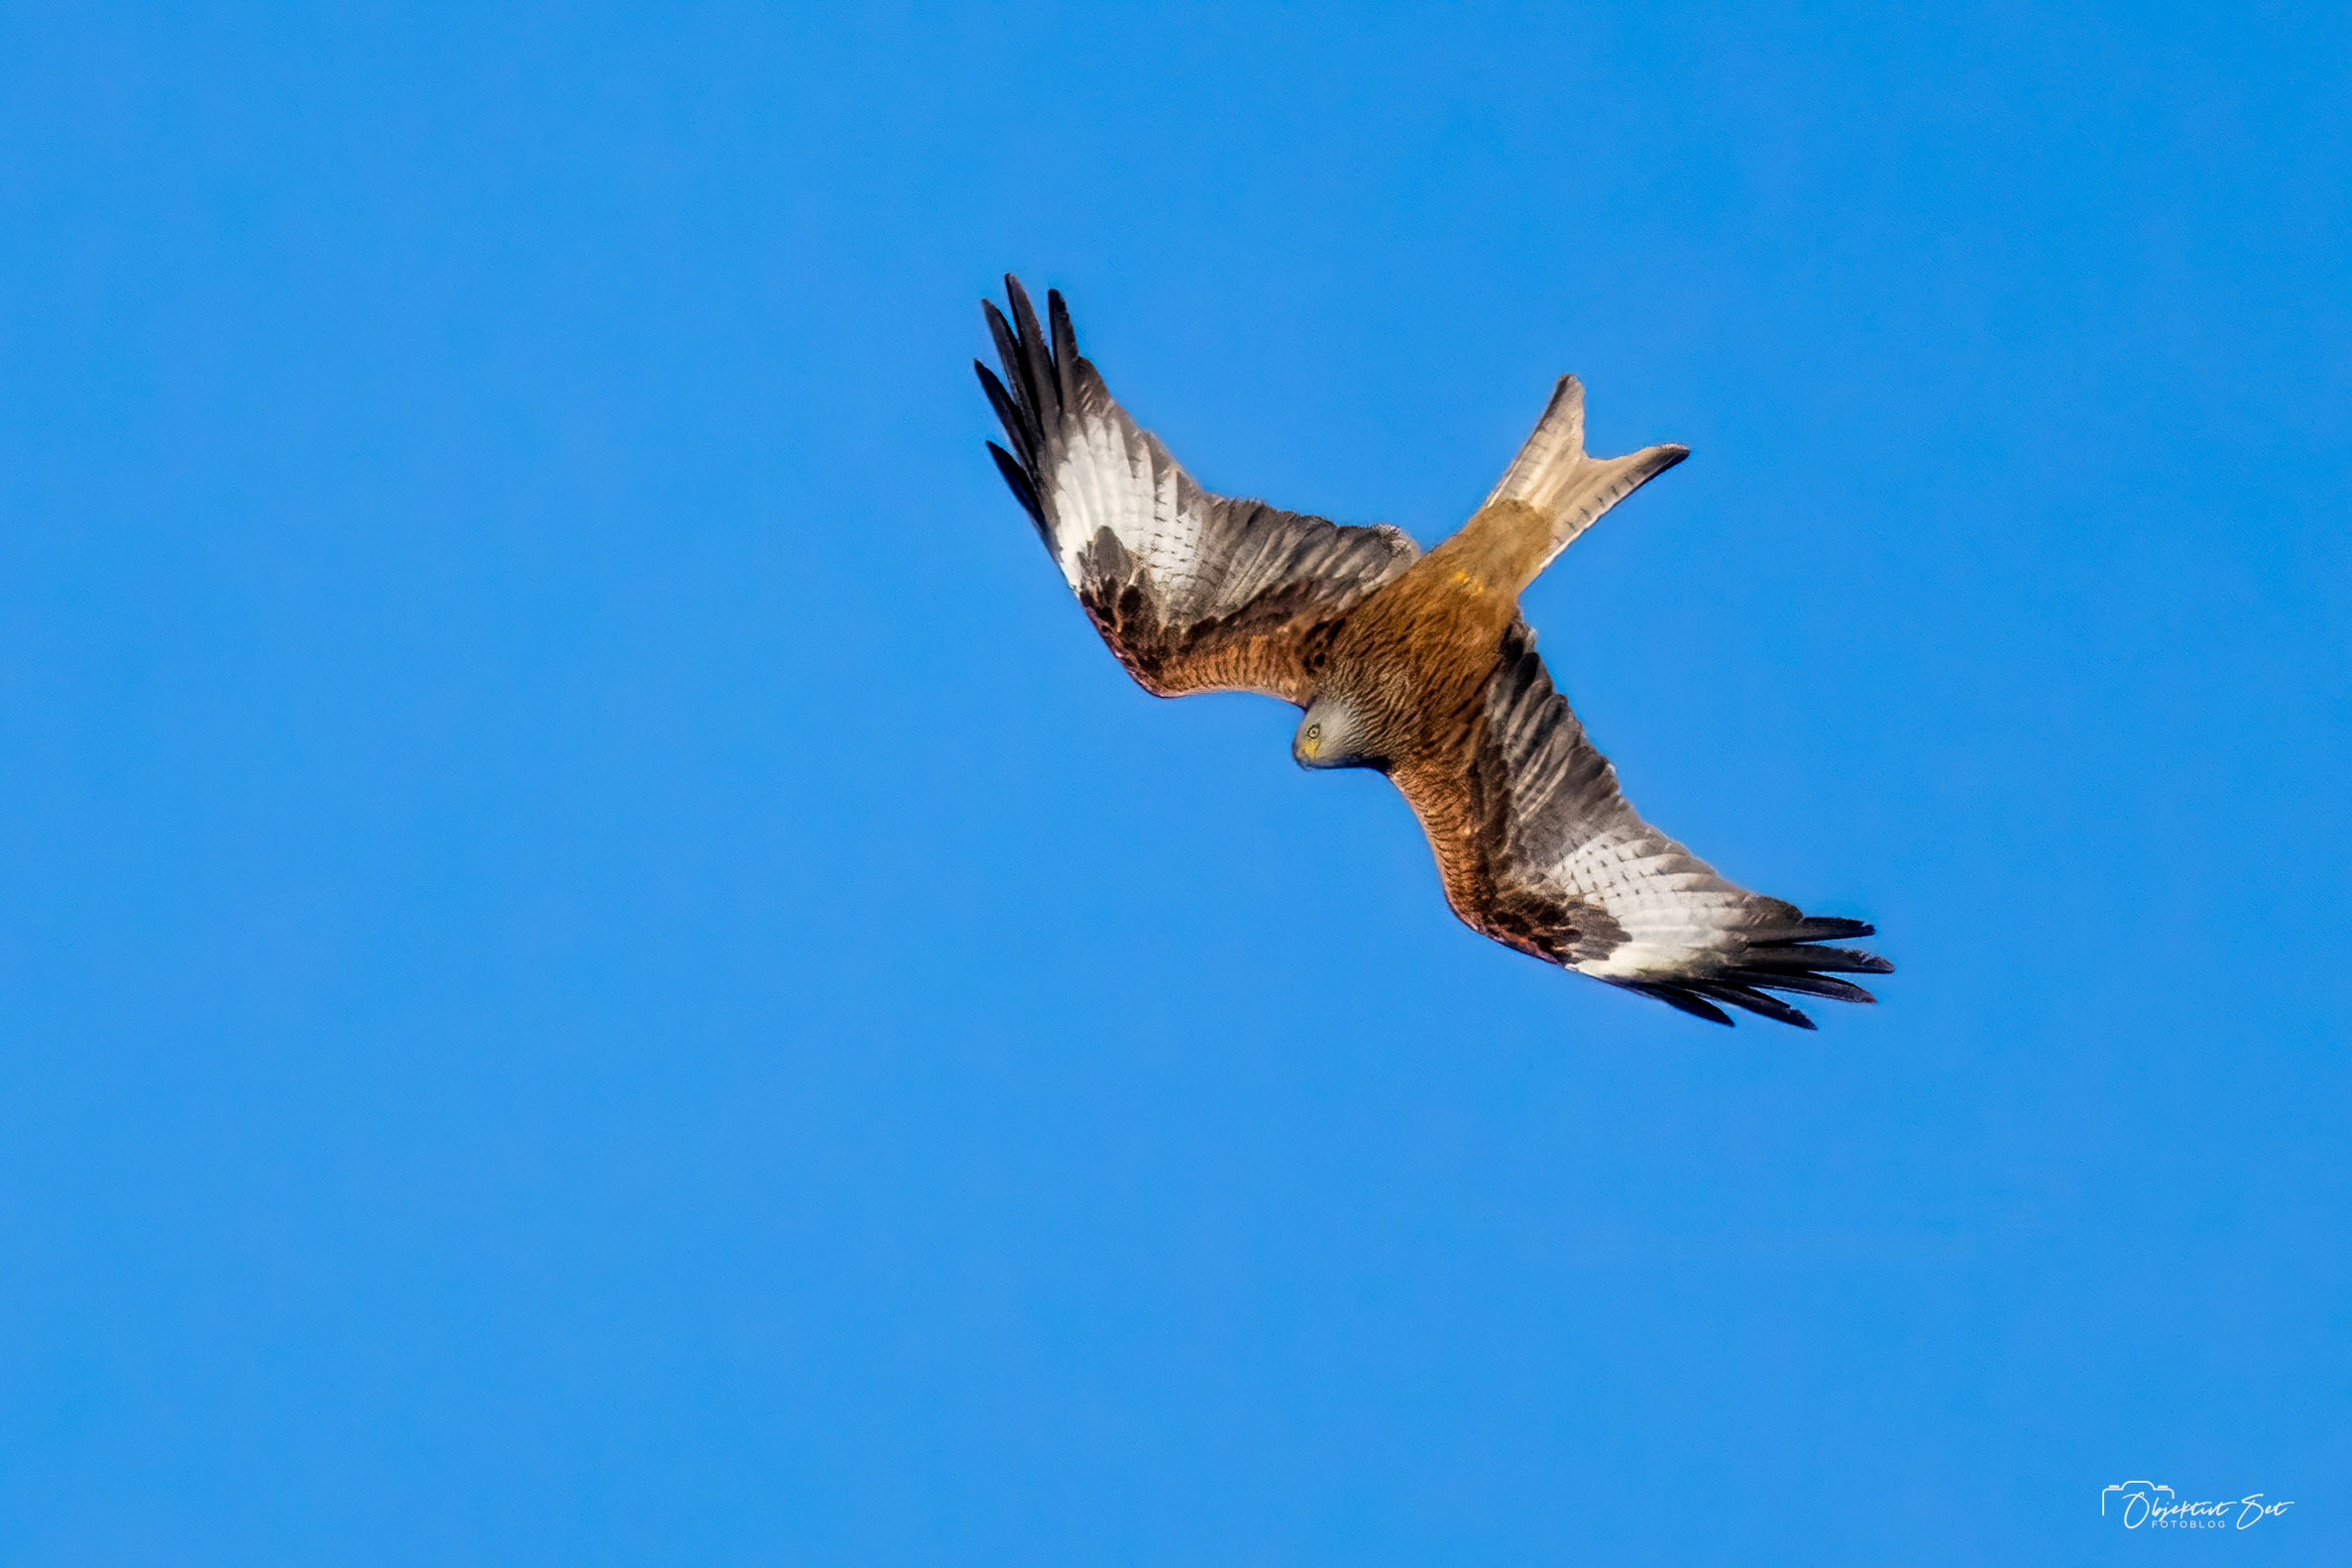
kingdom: Animalia
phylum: Chordata
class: Aves
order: Accipitriformes
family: Accipitridae
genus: Milvus
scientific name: Milvus milvus
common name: Rød glente
